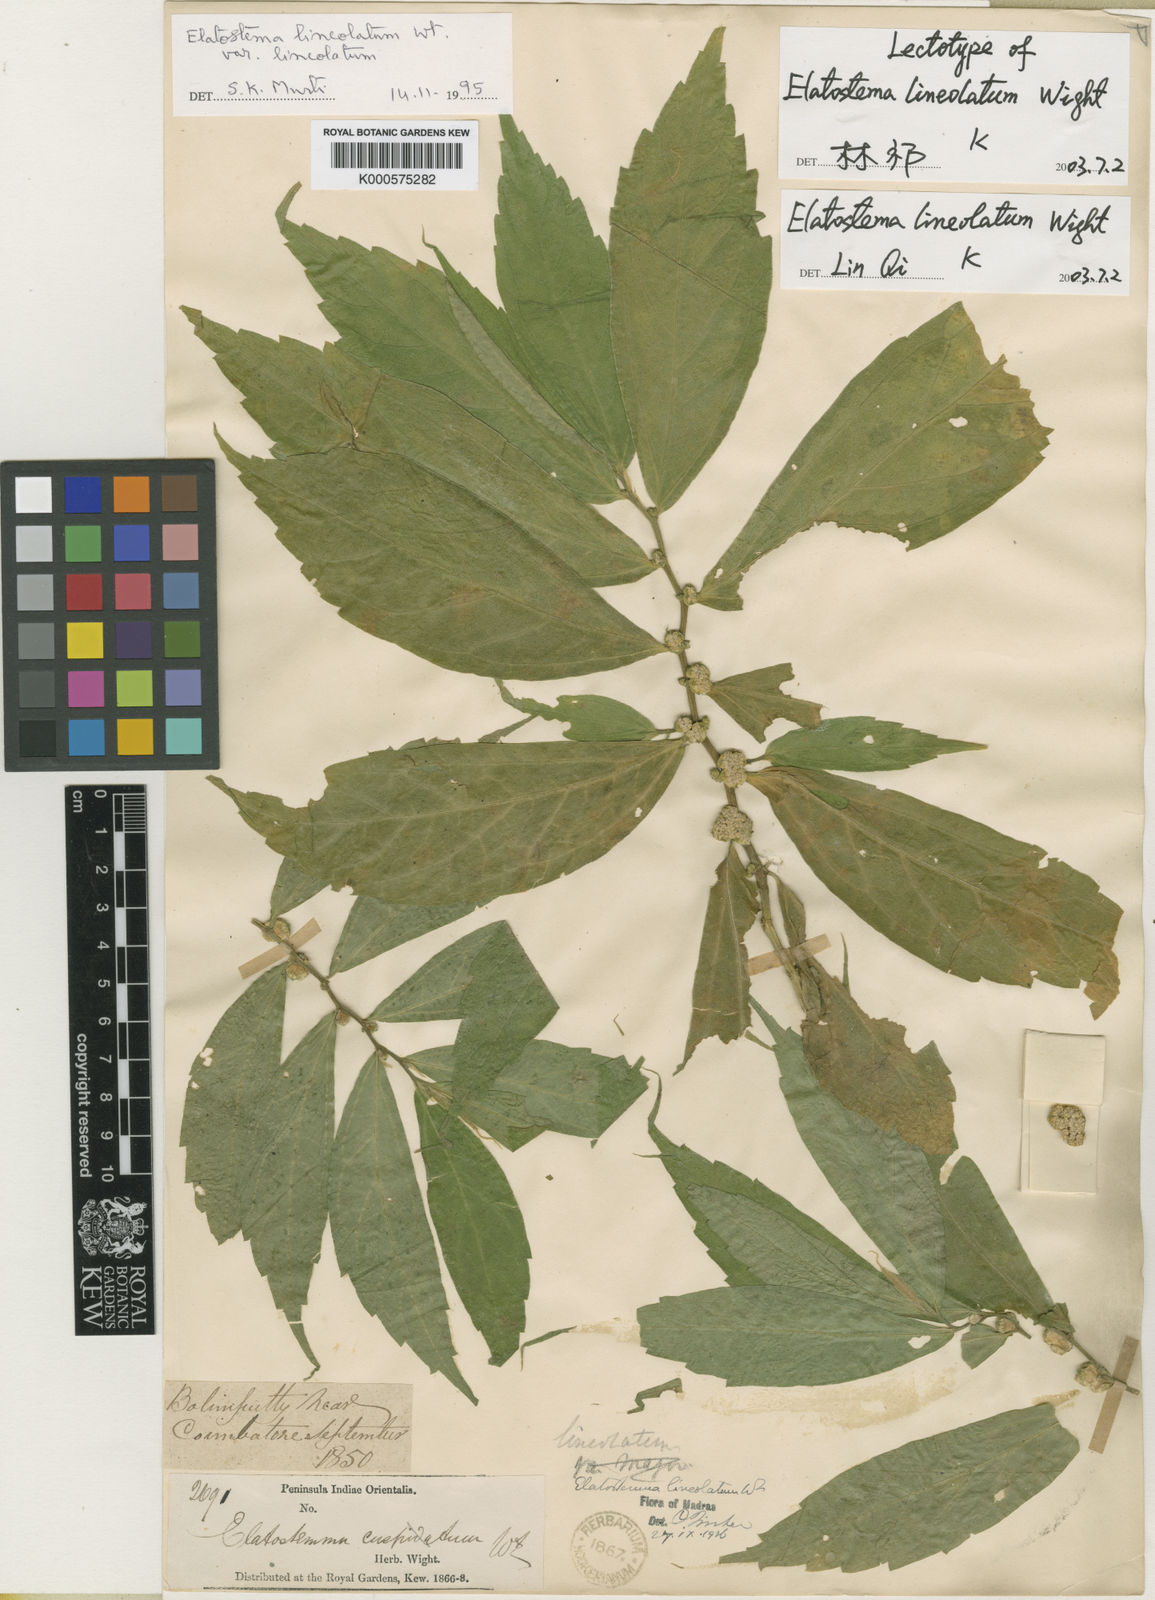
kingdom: Plantae
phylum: Tracheophyta
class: Magnoliopsida
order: Rosales
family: Urticaceae
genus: Elatostema
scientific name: Elatostema lineolatum
